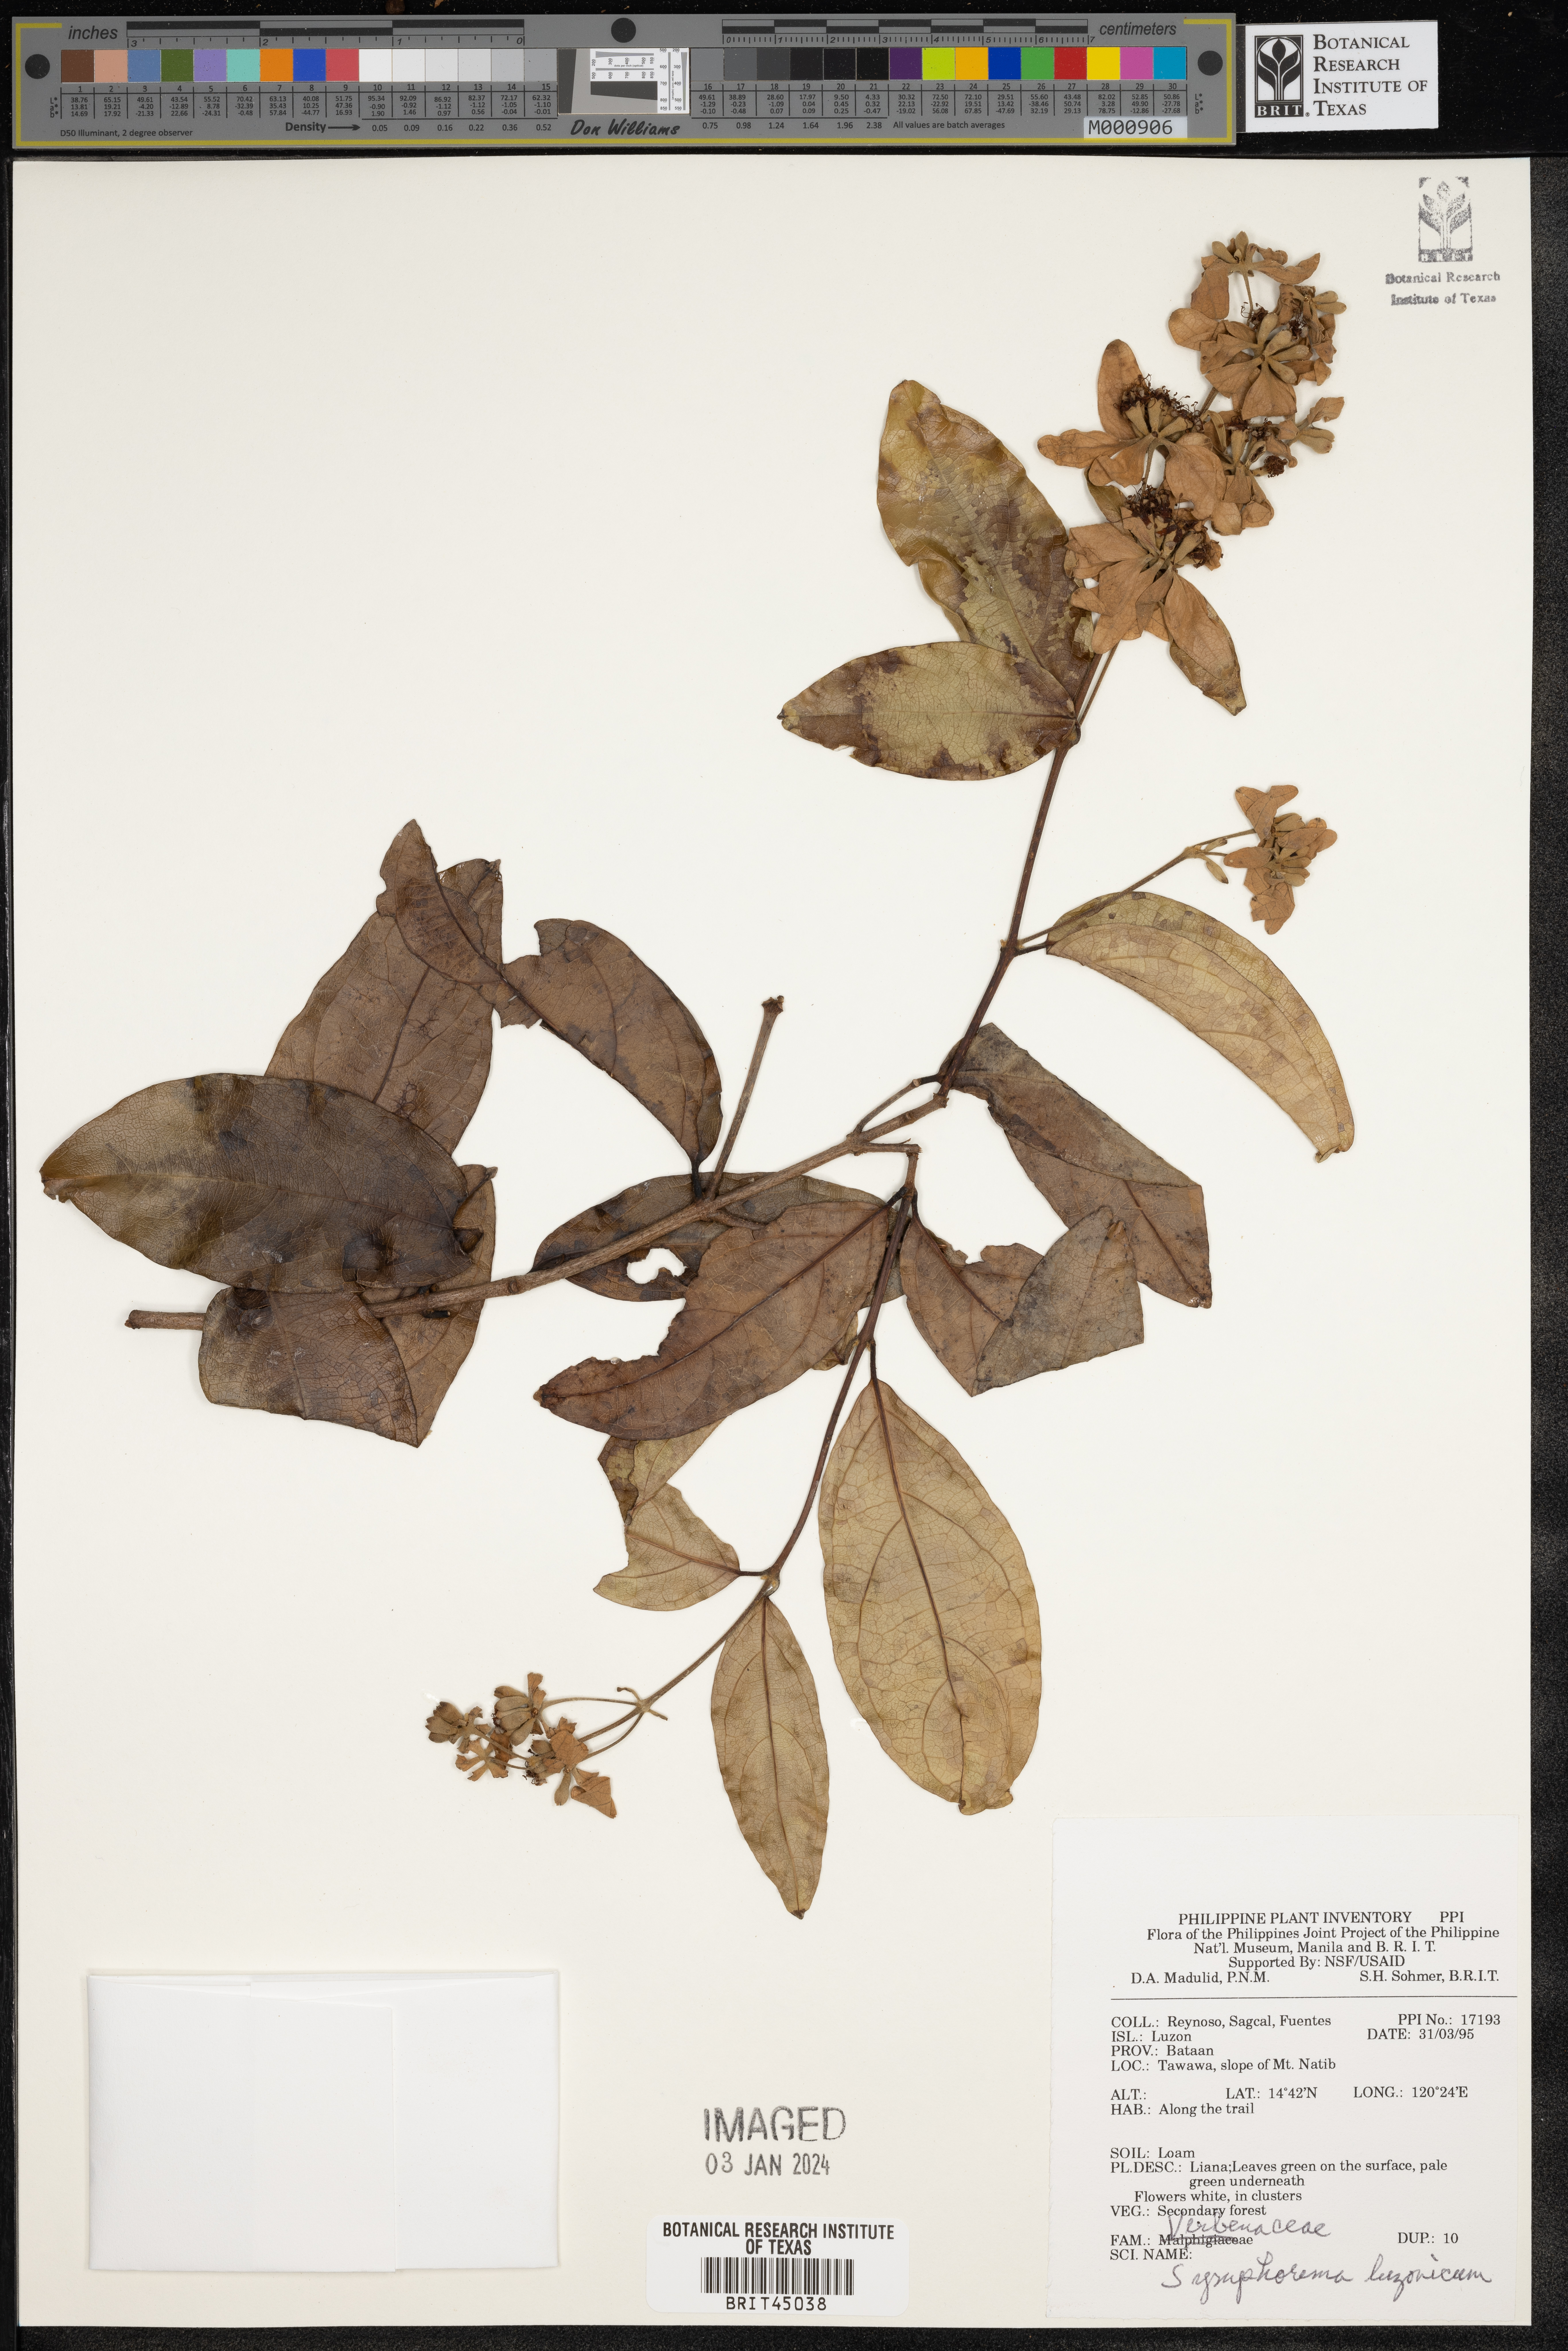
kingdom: Plantae
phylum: Tracheophyta
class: Magnoliopsida
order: Lamiales
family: Lamiaceae
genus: Symphorema
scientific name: Symphorema luzonicum
